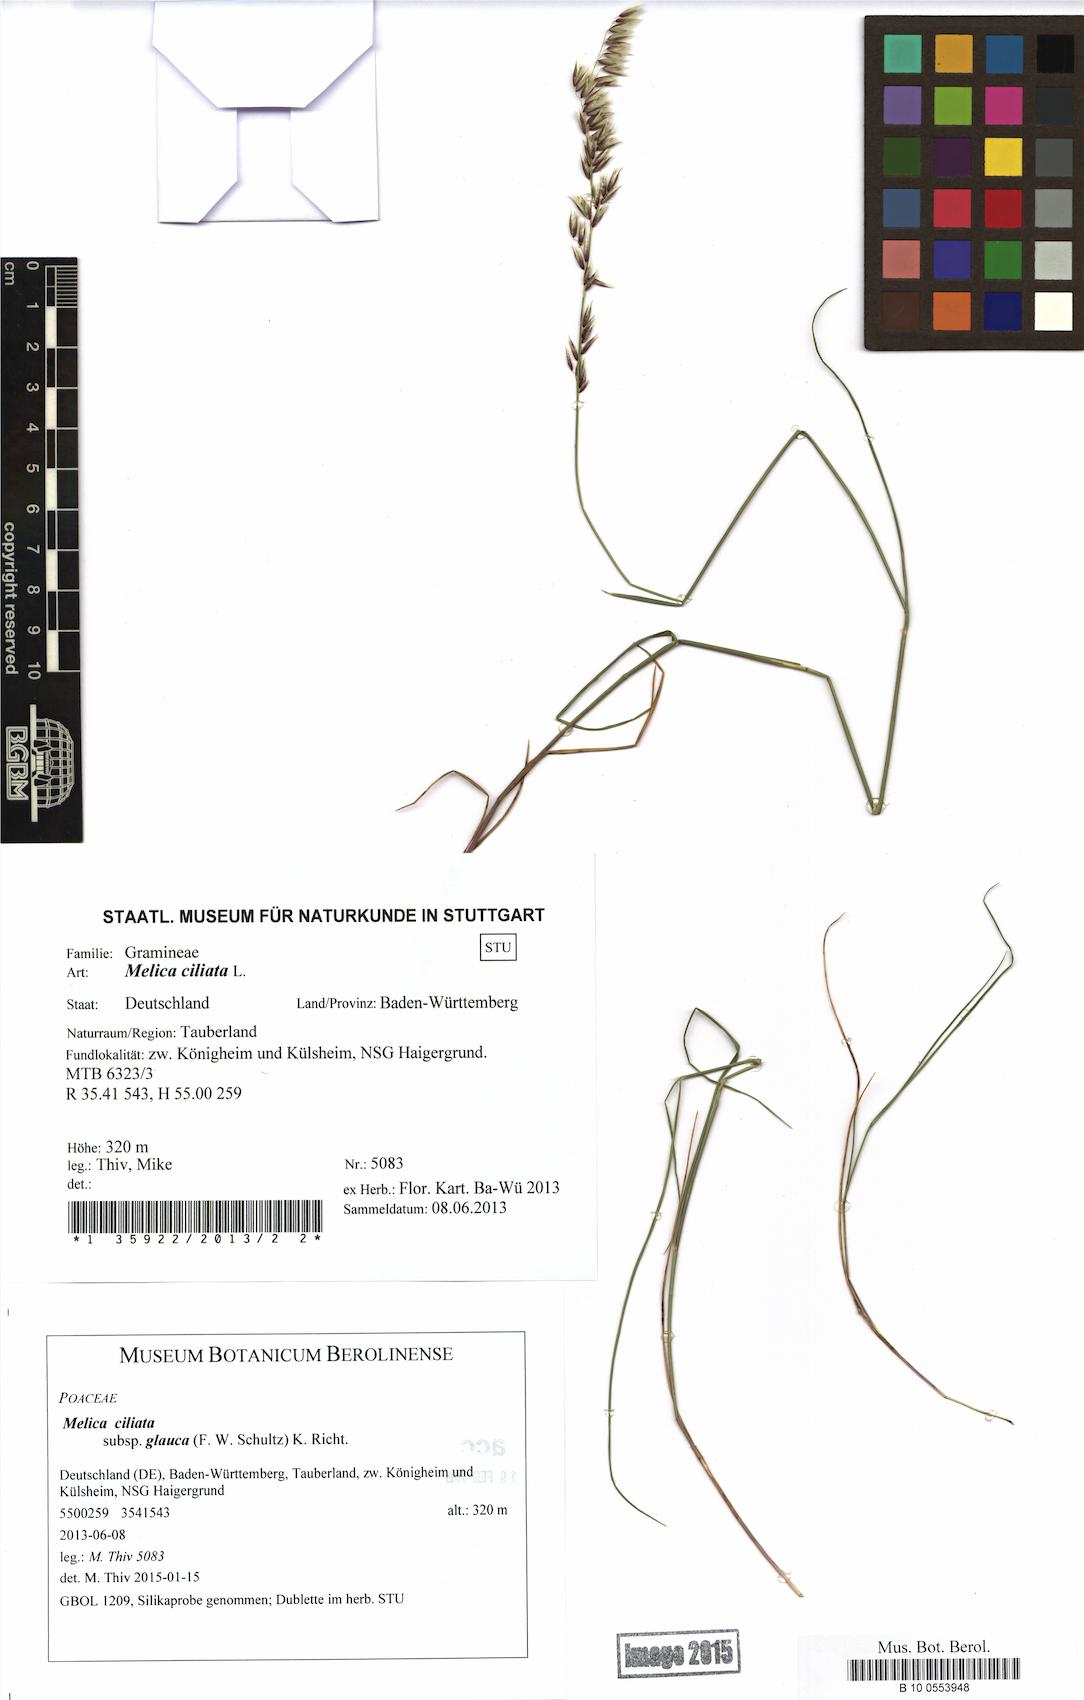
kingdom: Plantae
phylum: Tracheophyta
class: Liliopsida
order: Poales
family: Poaceae
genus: Melica
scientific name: Melica ciliata
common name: Hairy melicgrass
